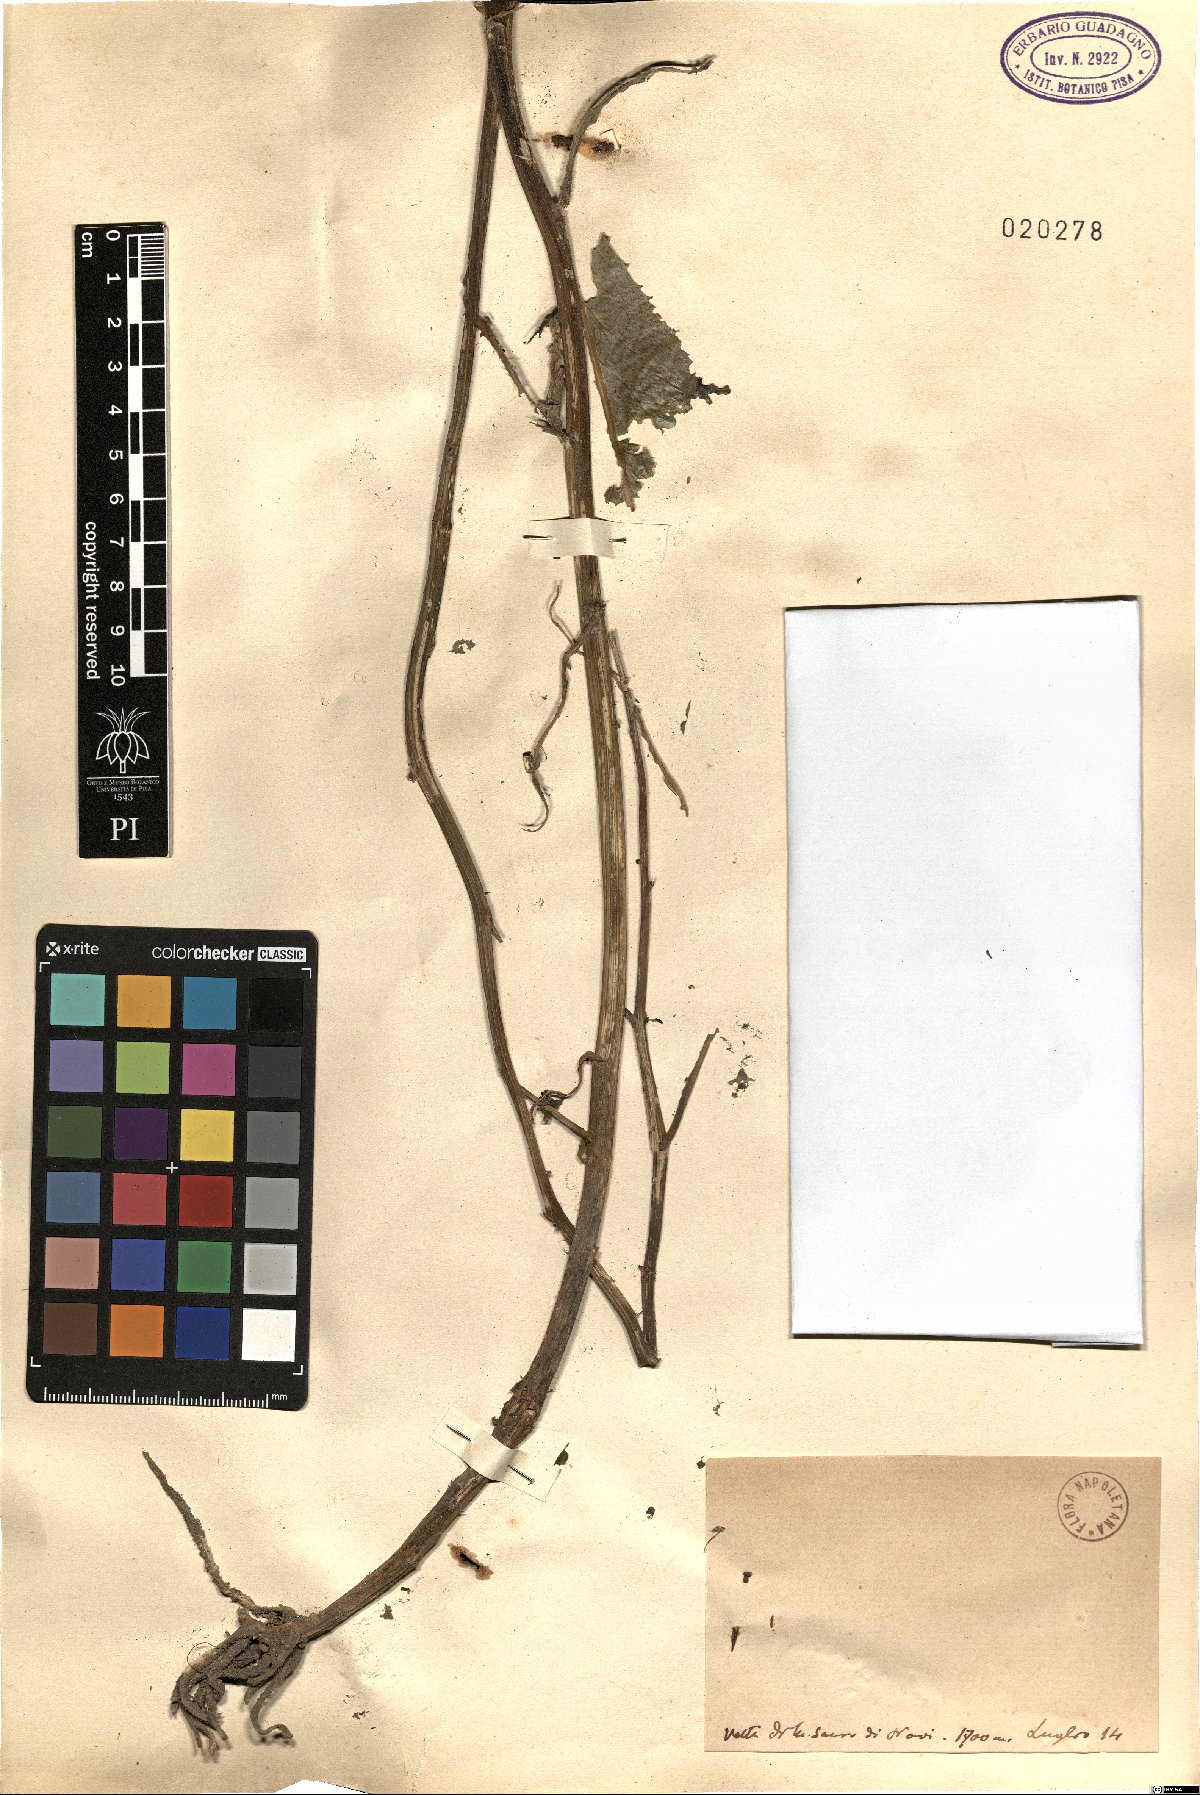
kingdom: Plantae
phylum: Tracheophyta
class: Magnoliopsida
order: Asterales
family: Asteraceae
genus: Senecio
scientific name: Senecio
